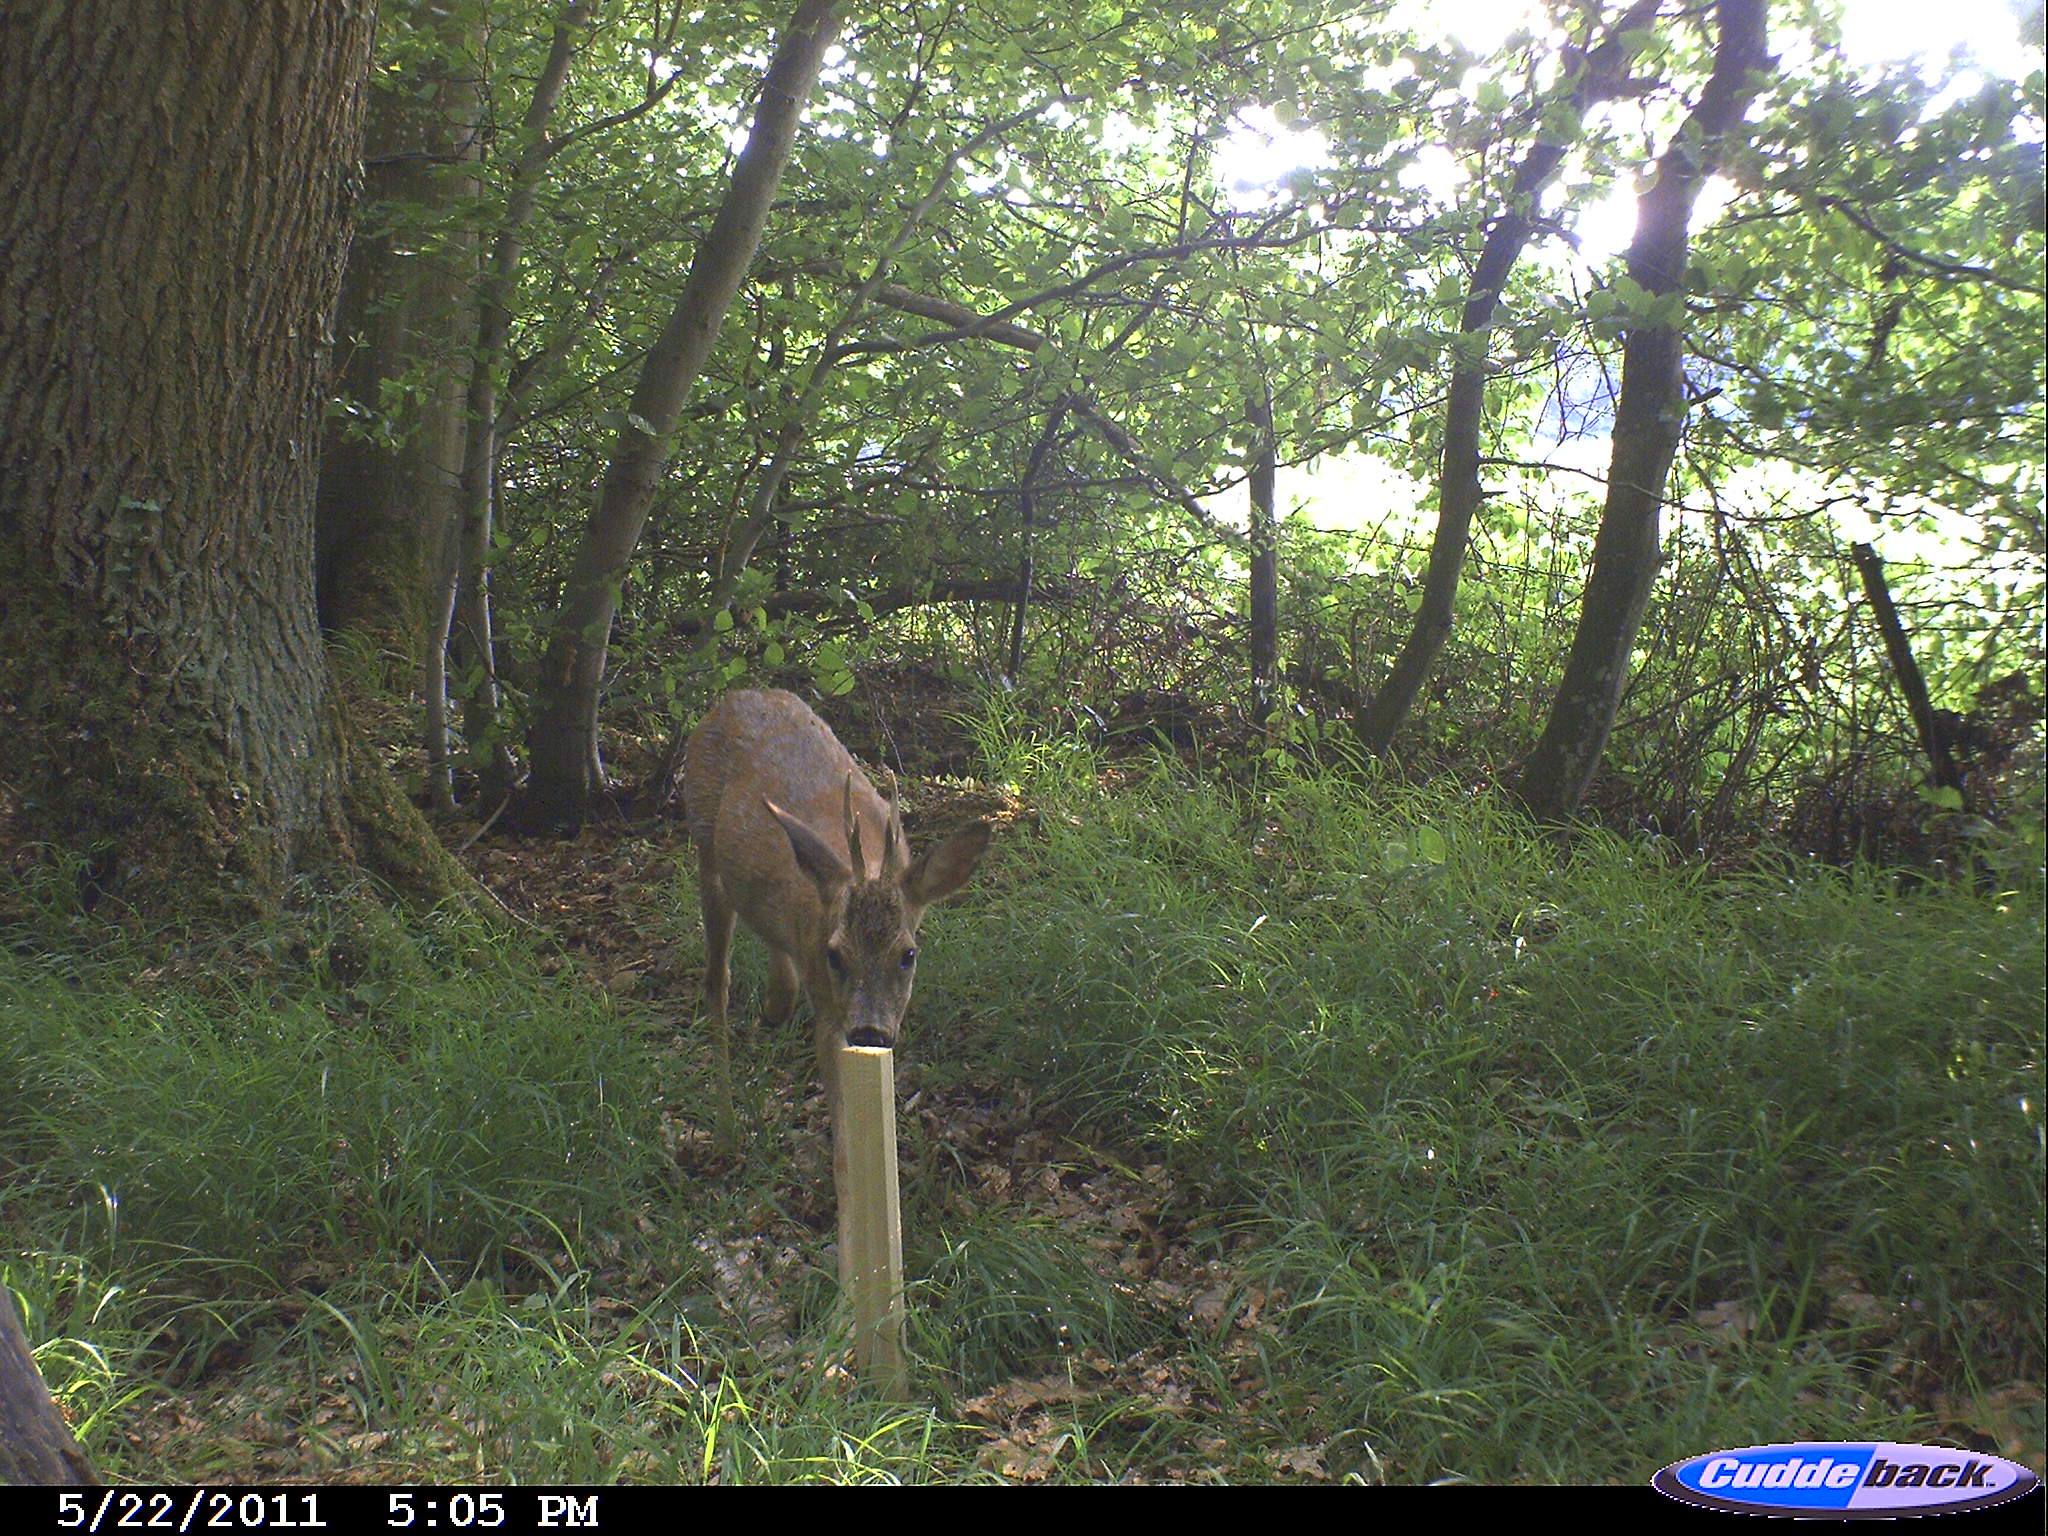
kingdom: Animalia
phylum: Chordata
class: Mammalia
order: Artiodactyla
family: Cervidae
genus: Capreolus
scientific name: Capreolus capreolus
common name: Western roe deer
